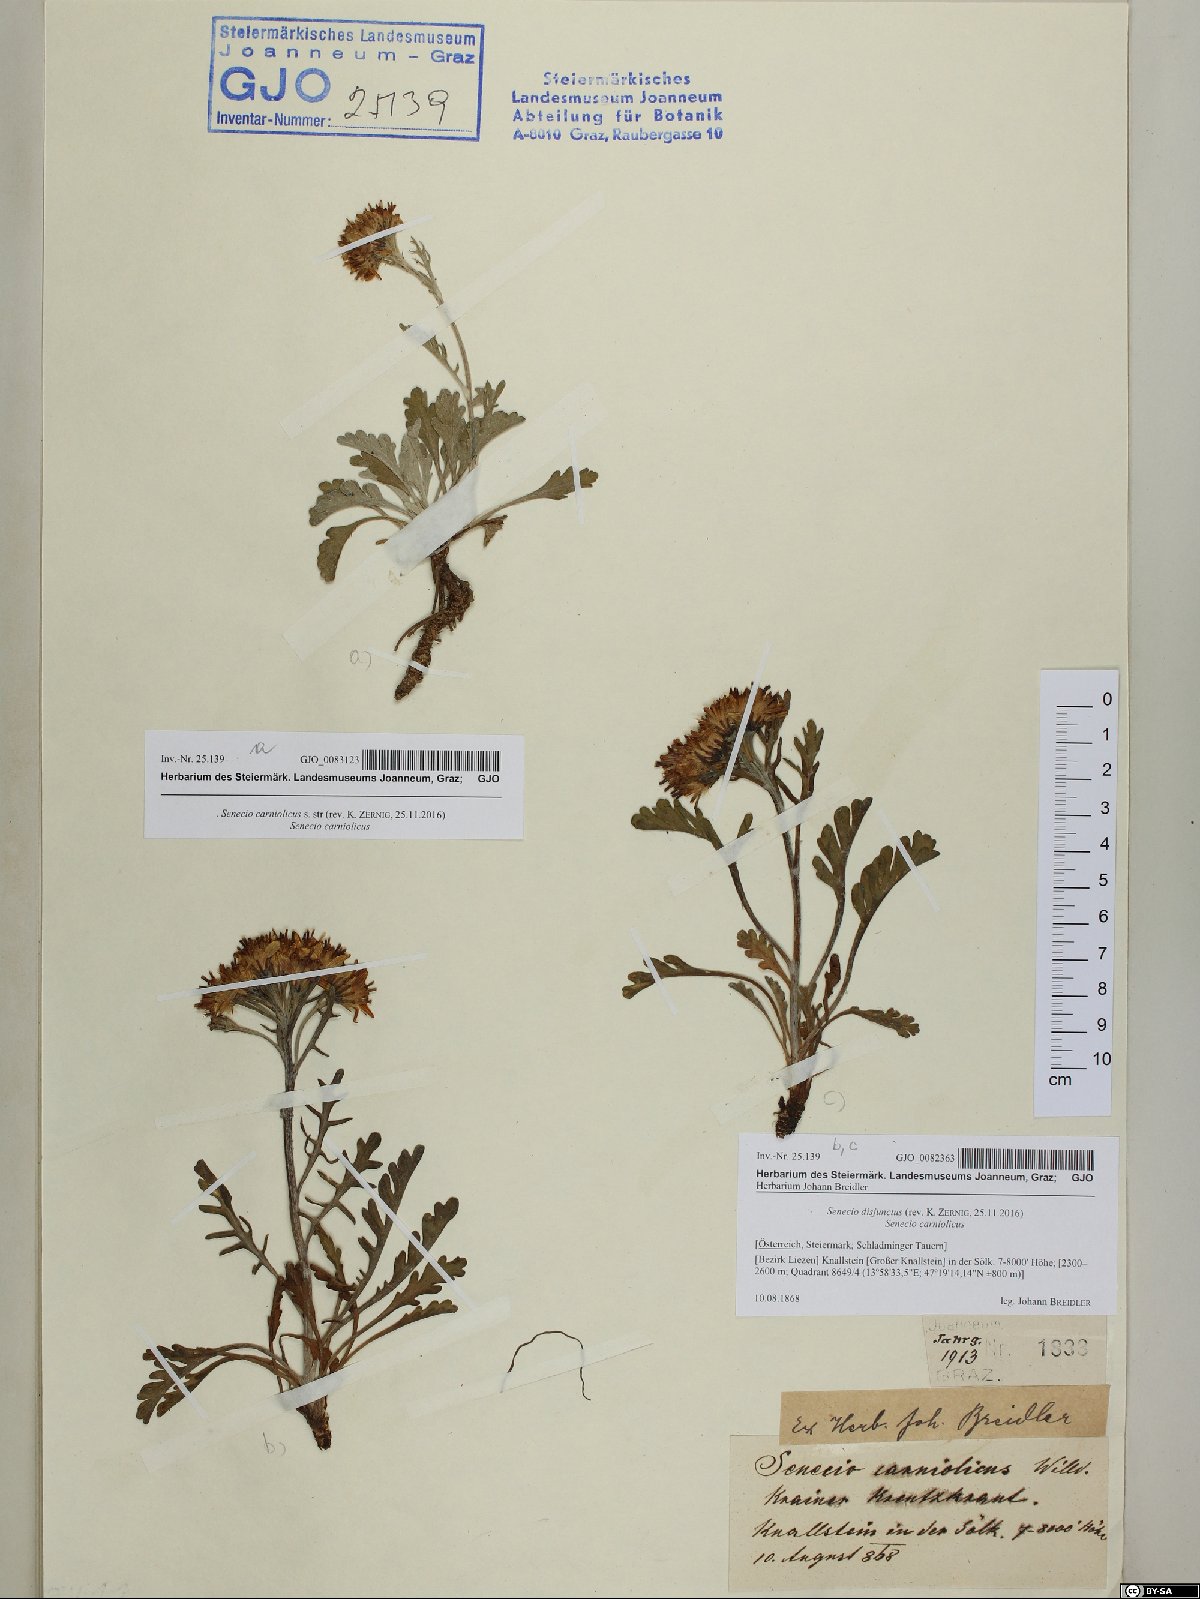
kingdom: Plantae
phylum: Tracheophyta
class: Magnoliopsida
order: Asterales
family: Asteraceae
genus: Jacobaea
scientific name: Jacobaea carniolica
